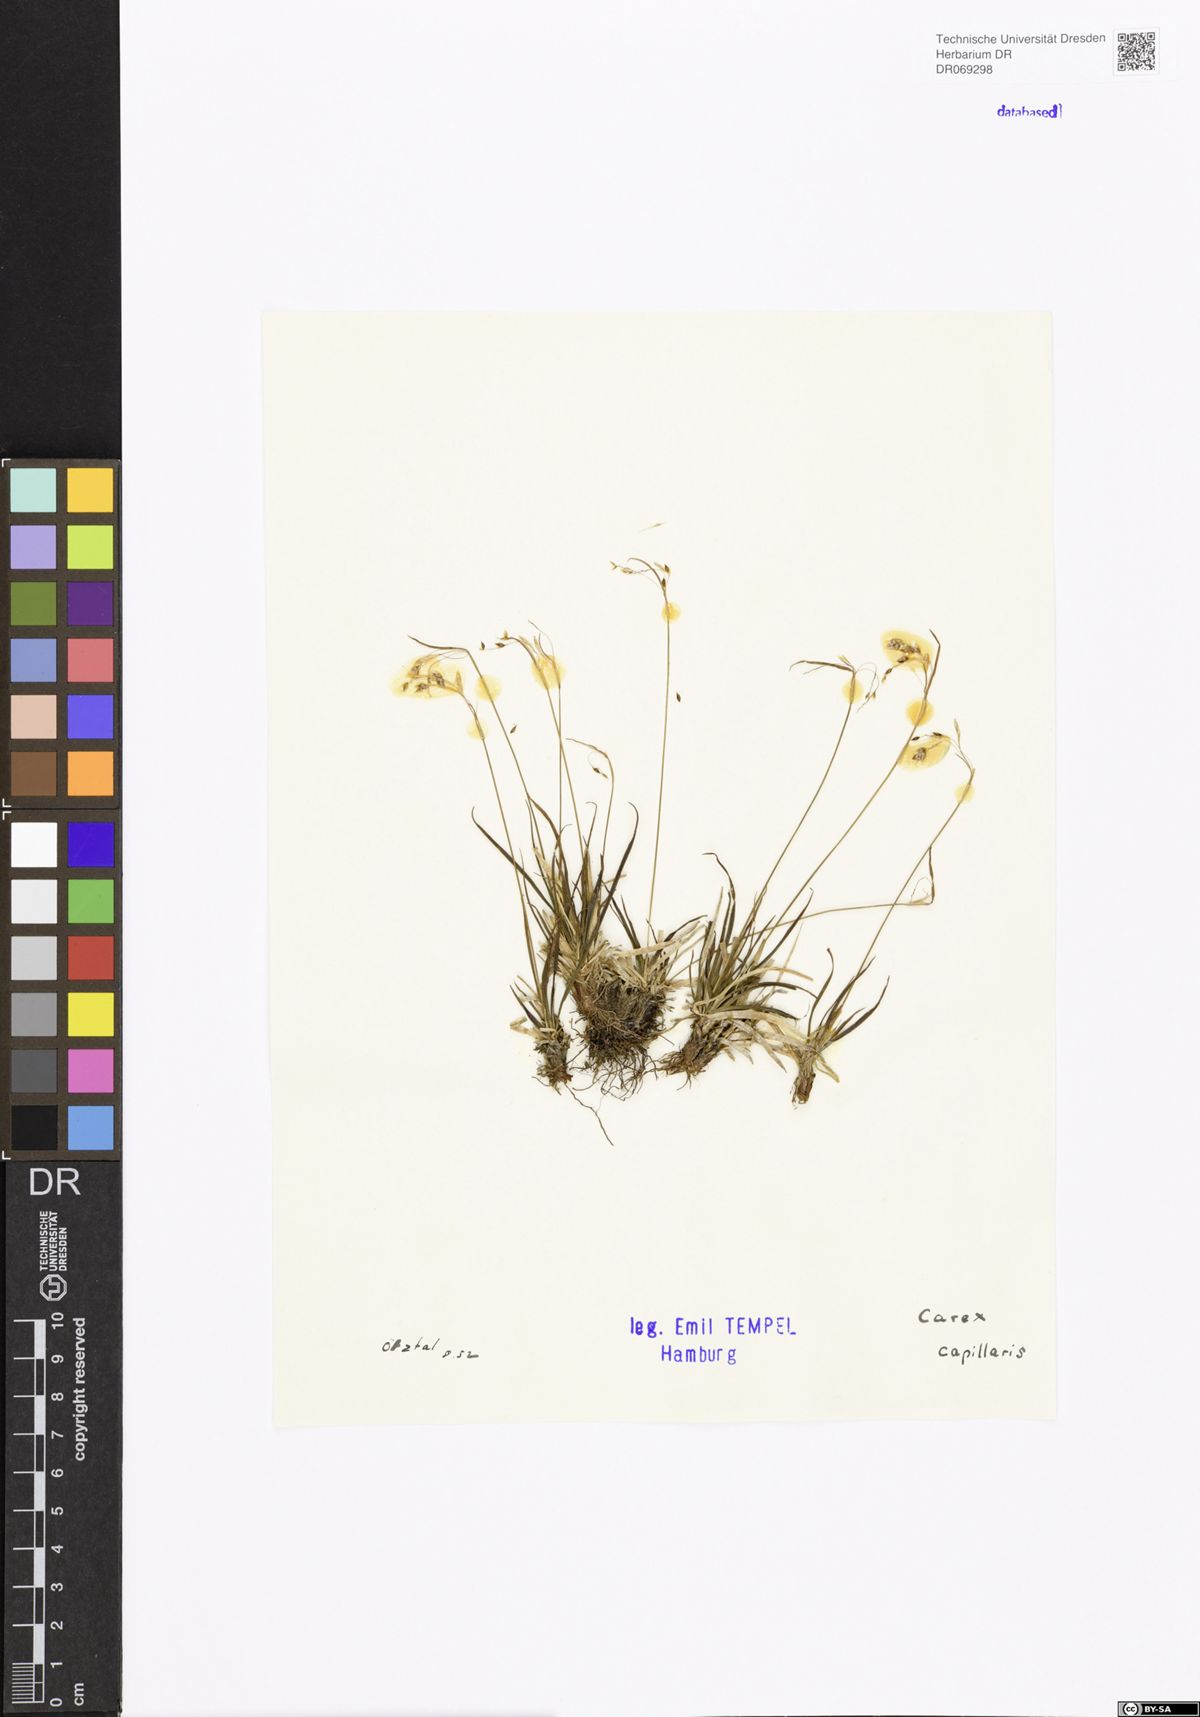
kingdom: Plantae
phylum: Tracheophyta
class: Liliopsida
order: Poales
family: Cyperaceae
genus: Carex
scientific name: Carex capillaris
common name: Hair sedge
